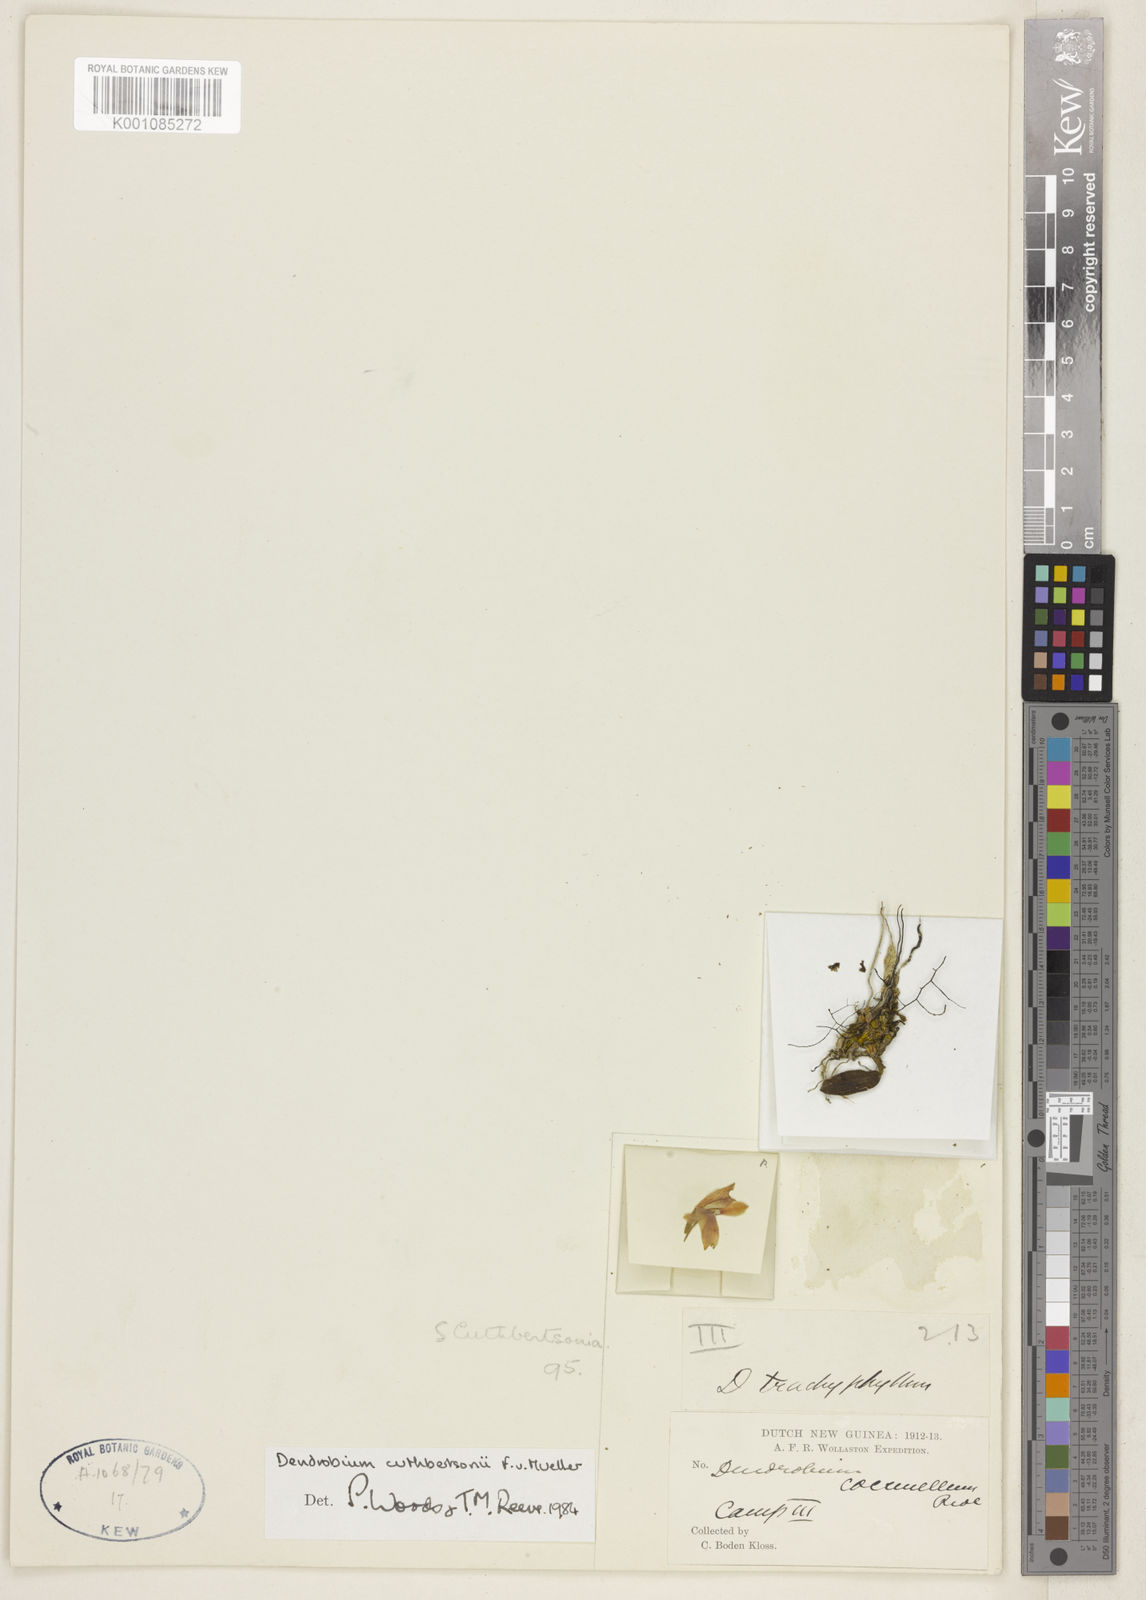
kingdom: Plantae
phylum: Tracheophyta
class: Liliopsida
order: Asparagales
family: Orchidaceae
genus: Dendrobium
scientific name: Dendrobium cuthbertsonii
